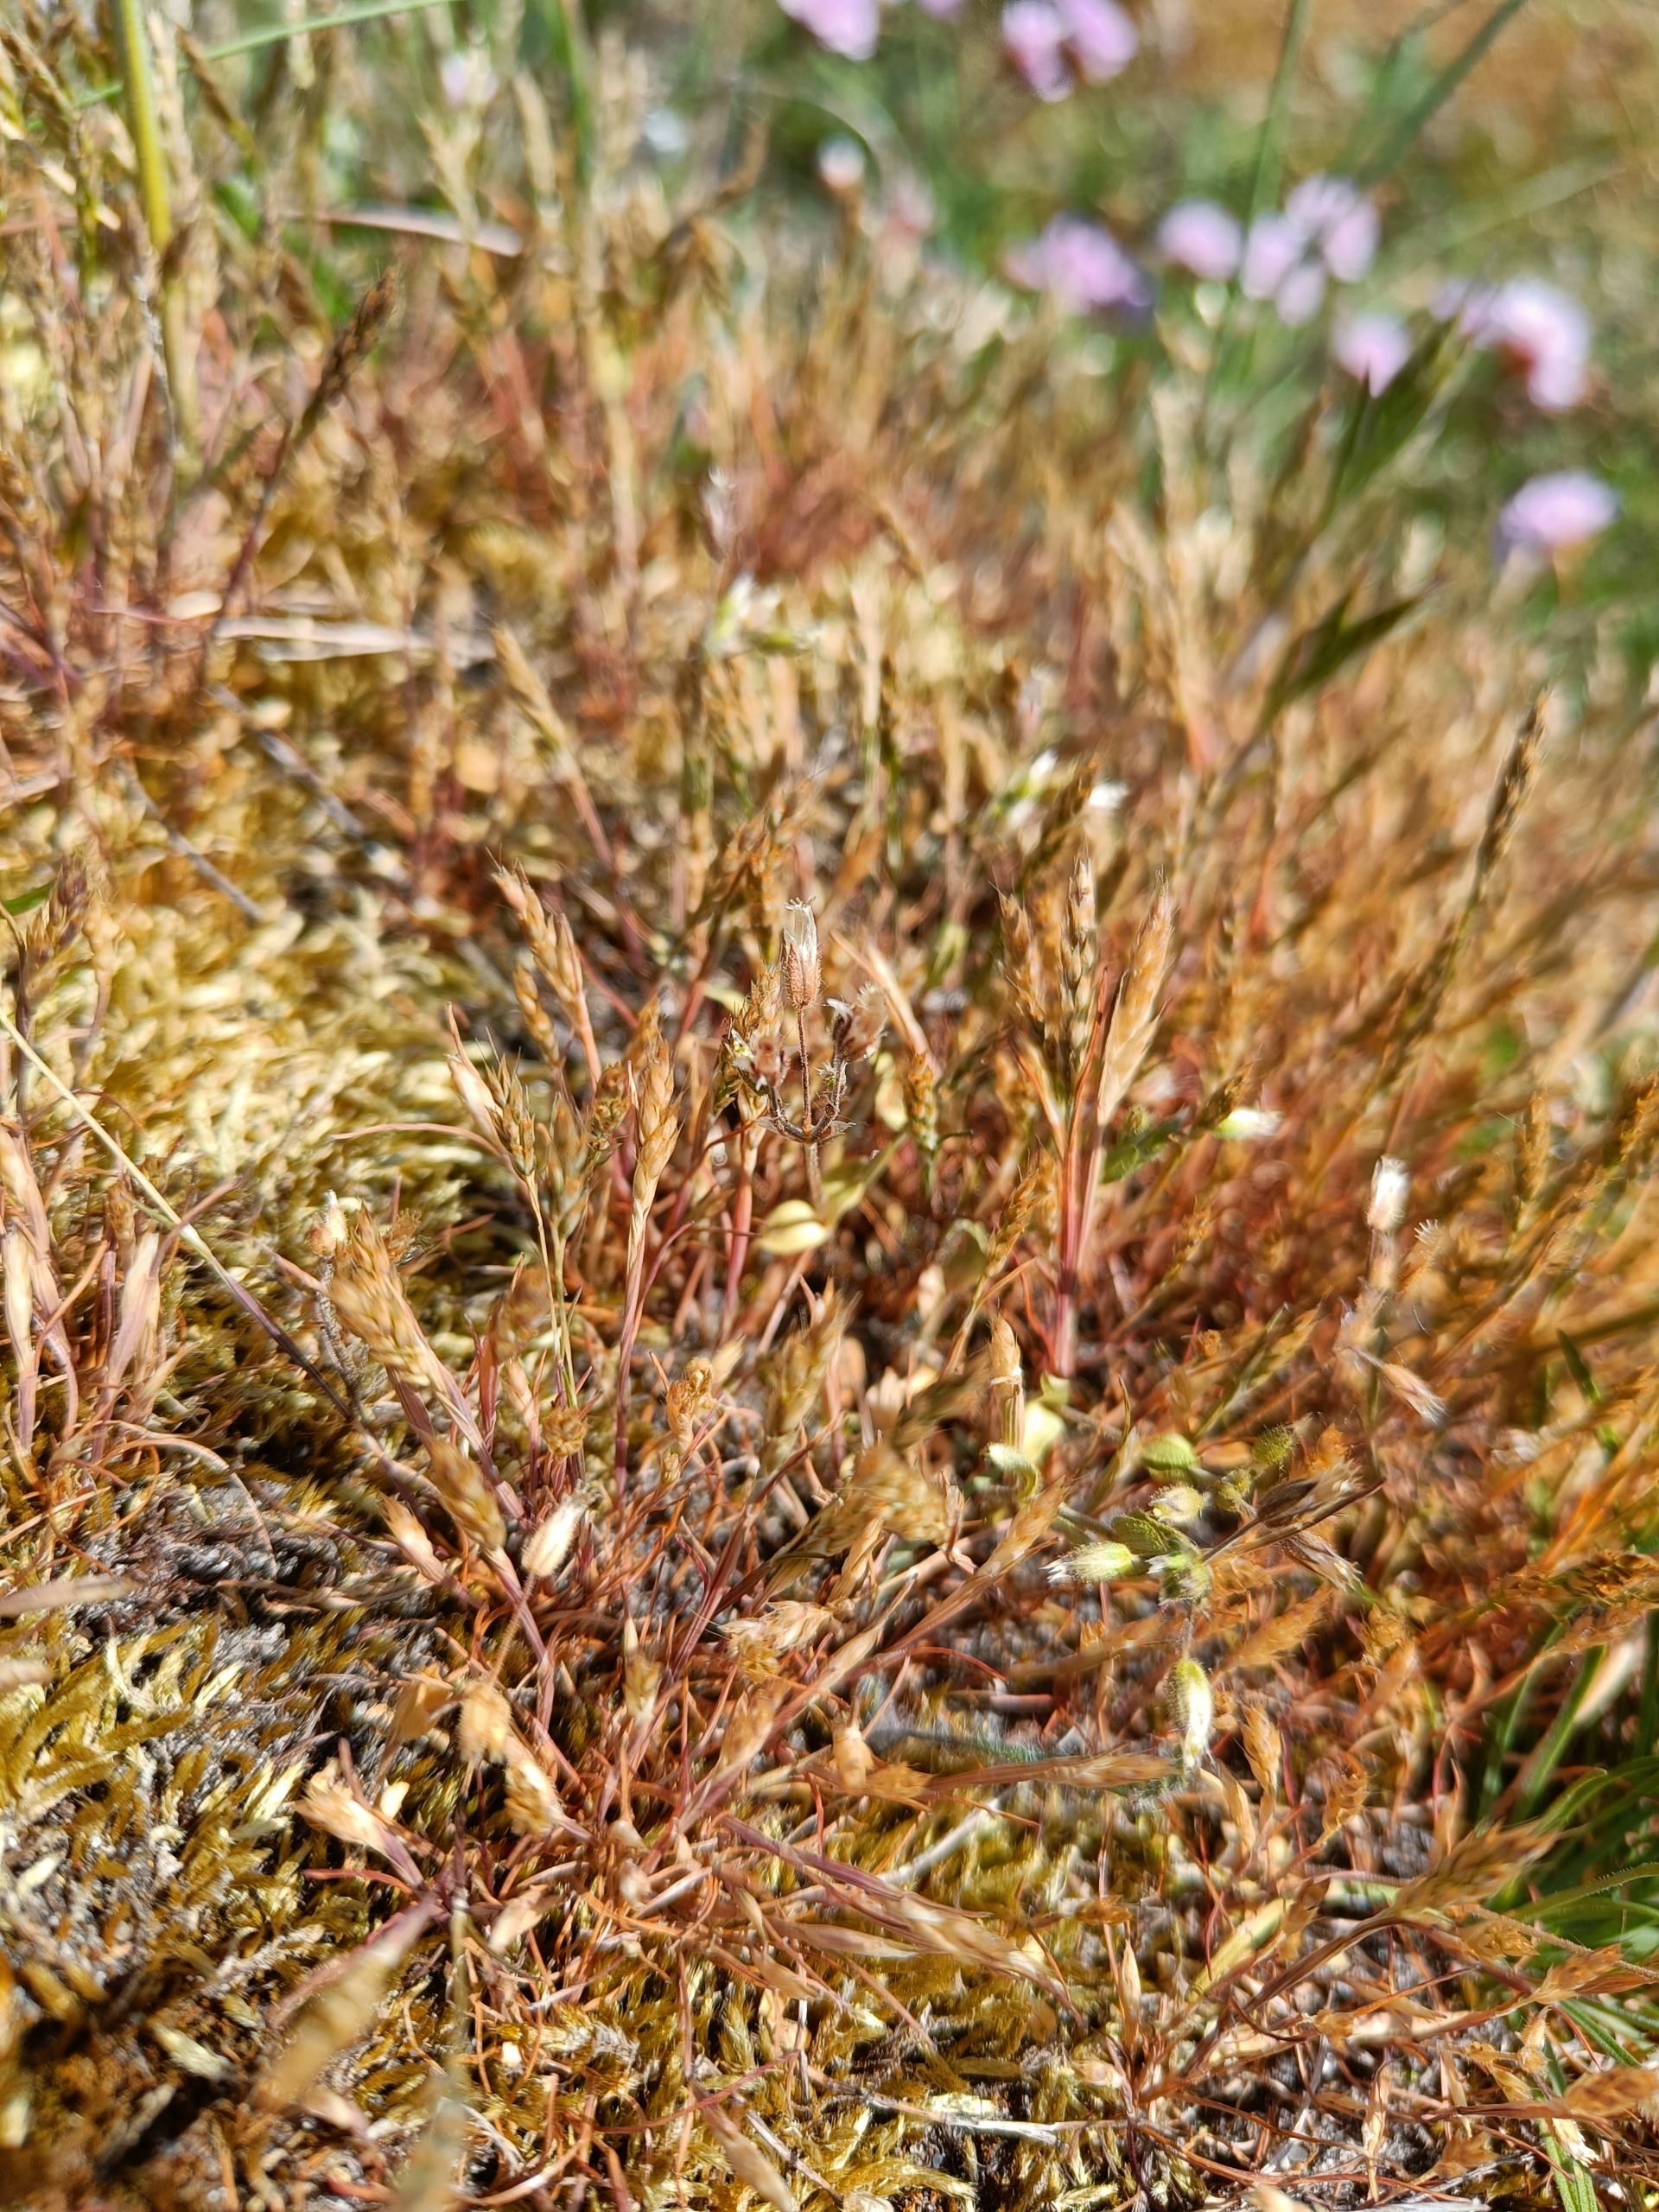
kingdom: Plantae
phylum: Tracheophyta
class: Liliopsida
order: Poales
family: Poaceae
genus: Aira
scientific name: Aira praecox
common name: Tidlig dværgbunke
